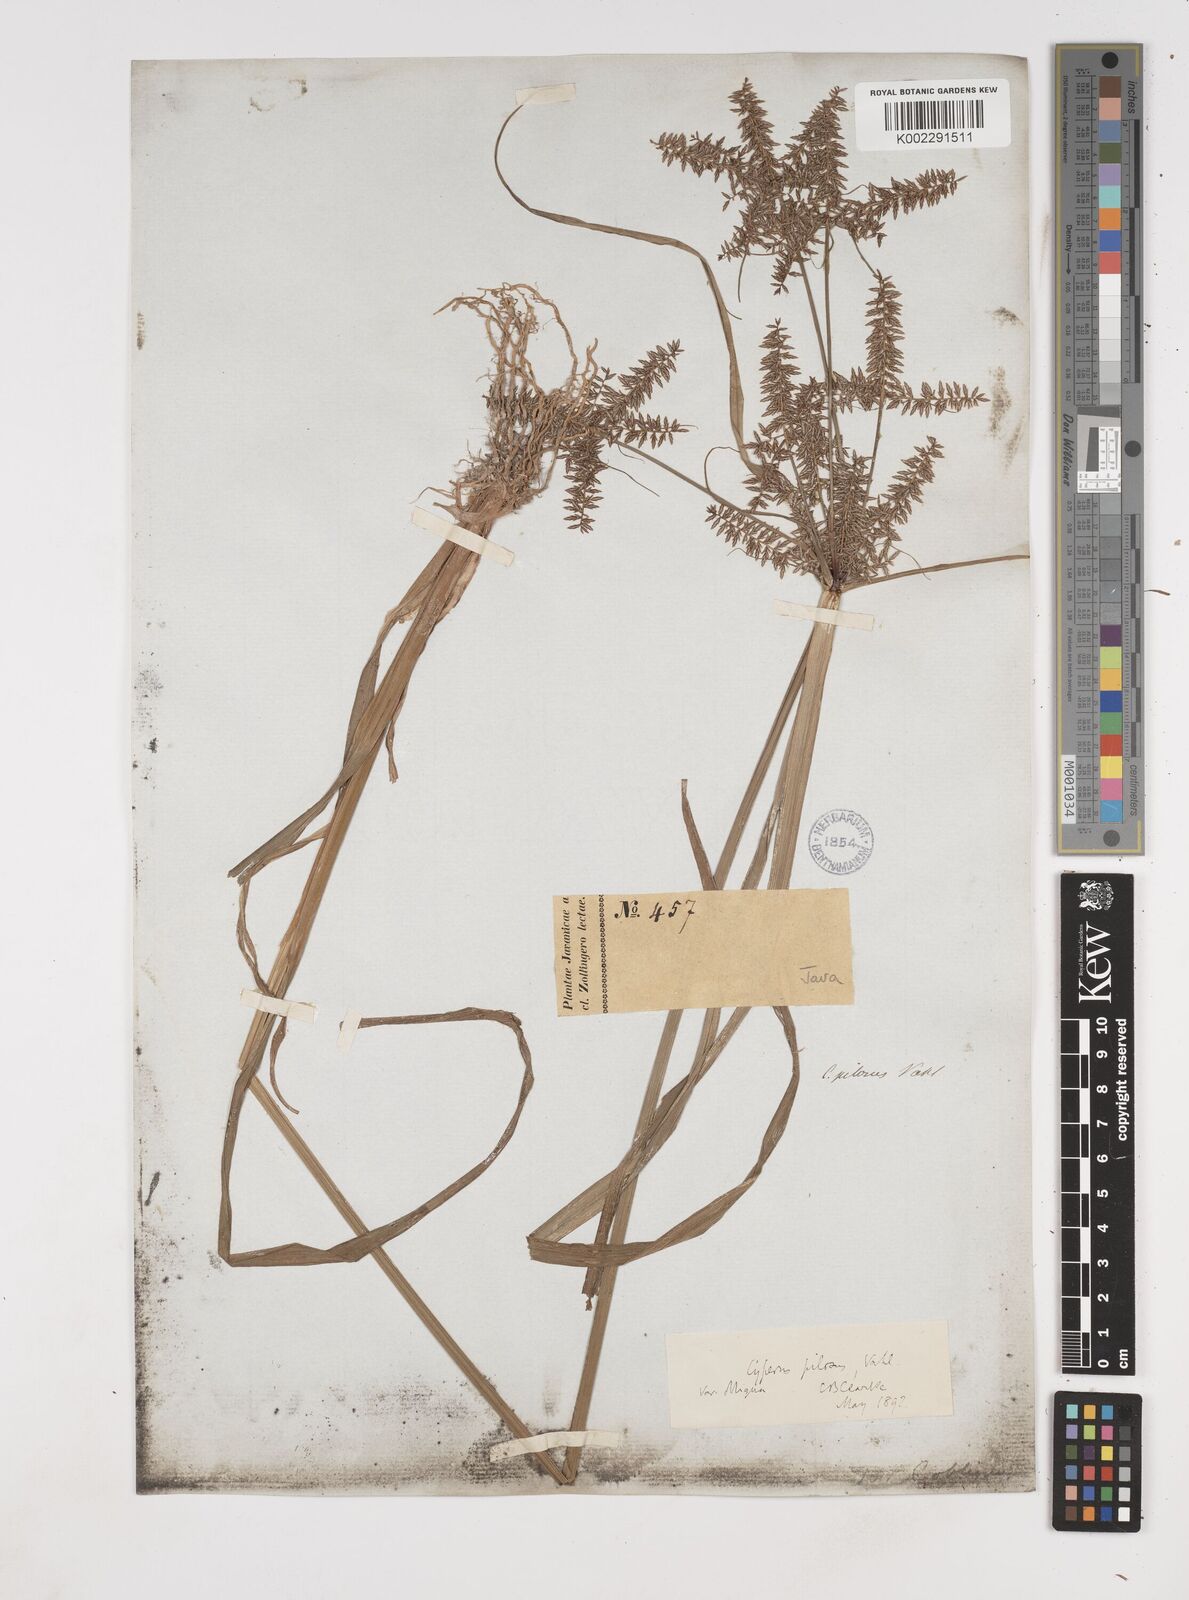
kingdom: Plantae
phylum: Tracheophyta
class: Liliopsida
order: Poales
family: Cyperaceae
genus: Cyperus
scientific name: Cyperus pilosus
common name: Fuzzy flatsedge
